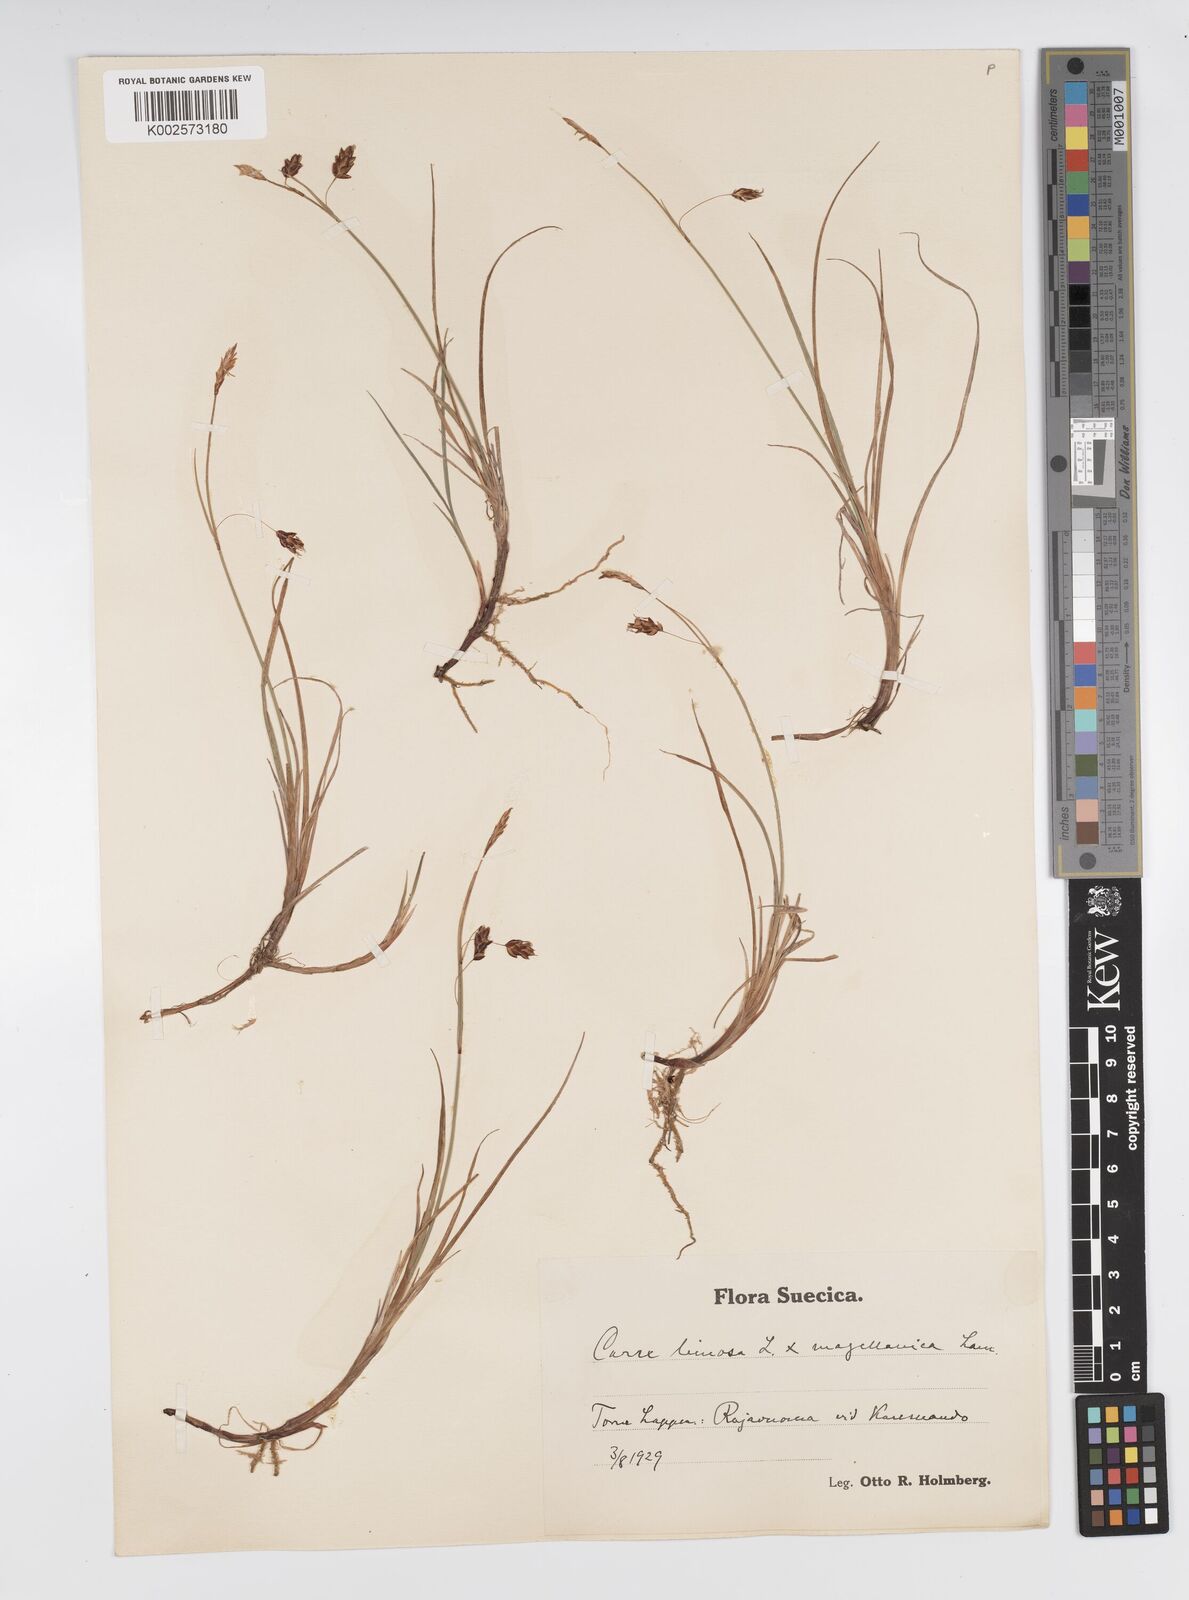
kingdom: Plantae
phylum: Tracheophyta
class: Liliopsida
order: Poales
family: Cyperaceae
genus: Carex
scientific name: Carex limosa
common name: Bog sedge
